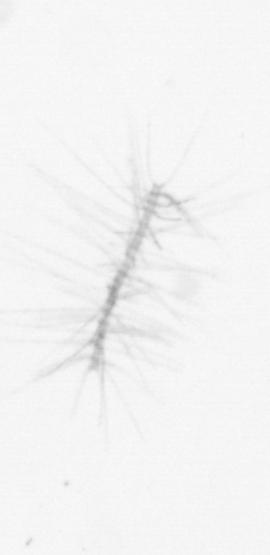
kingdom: Chromista
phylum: Ochrophyta
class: Bacillariophyceae
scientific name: Bacillariophyceae
